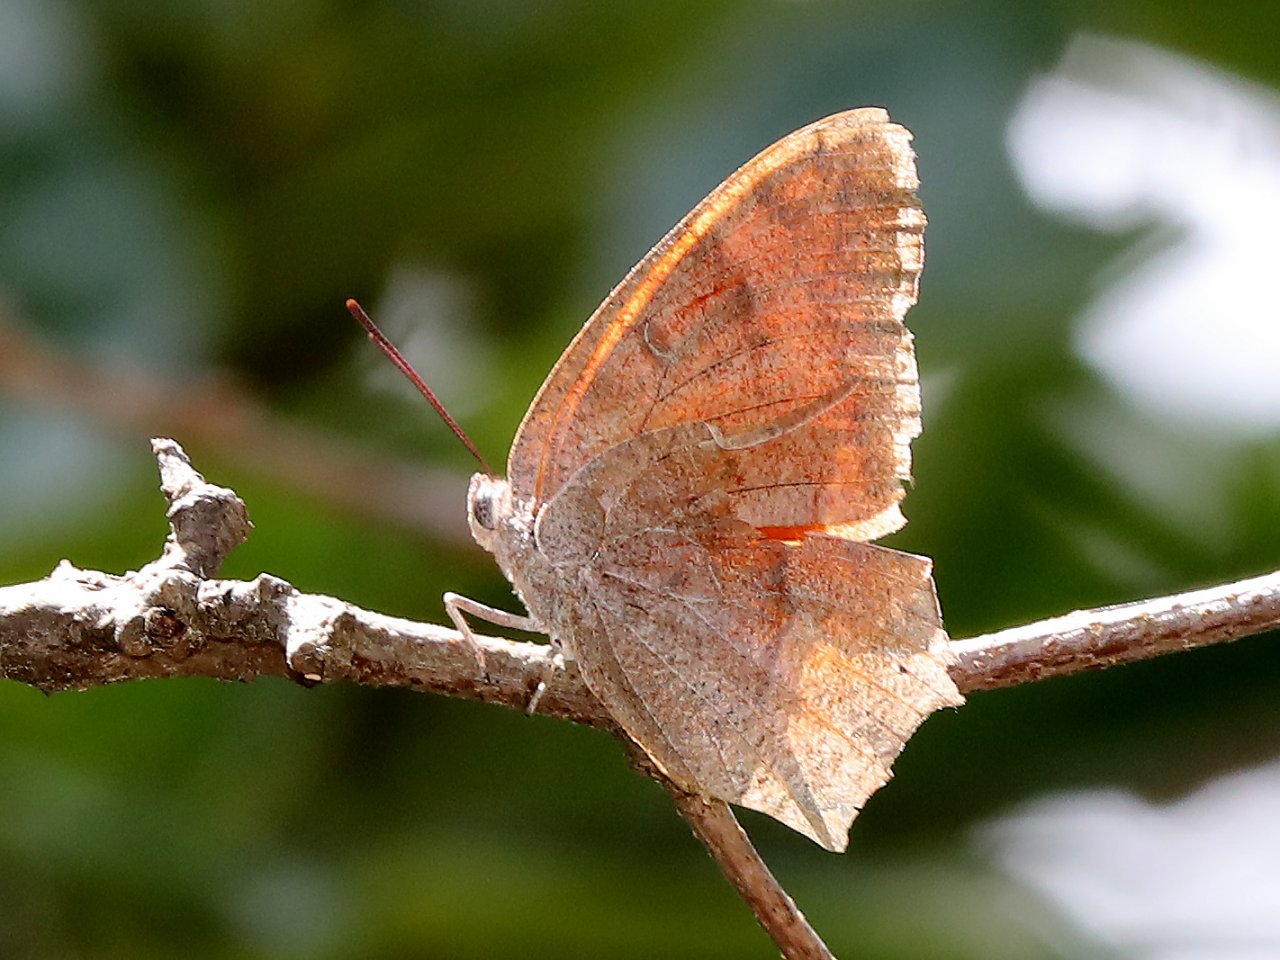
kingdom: Animalia
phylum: Arthropoda
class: Insecta
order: Lepidoptera
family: Nymphalidae
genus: Anaea
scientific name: Anaea andria
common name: Goatweed Leafwing
